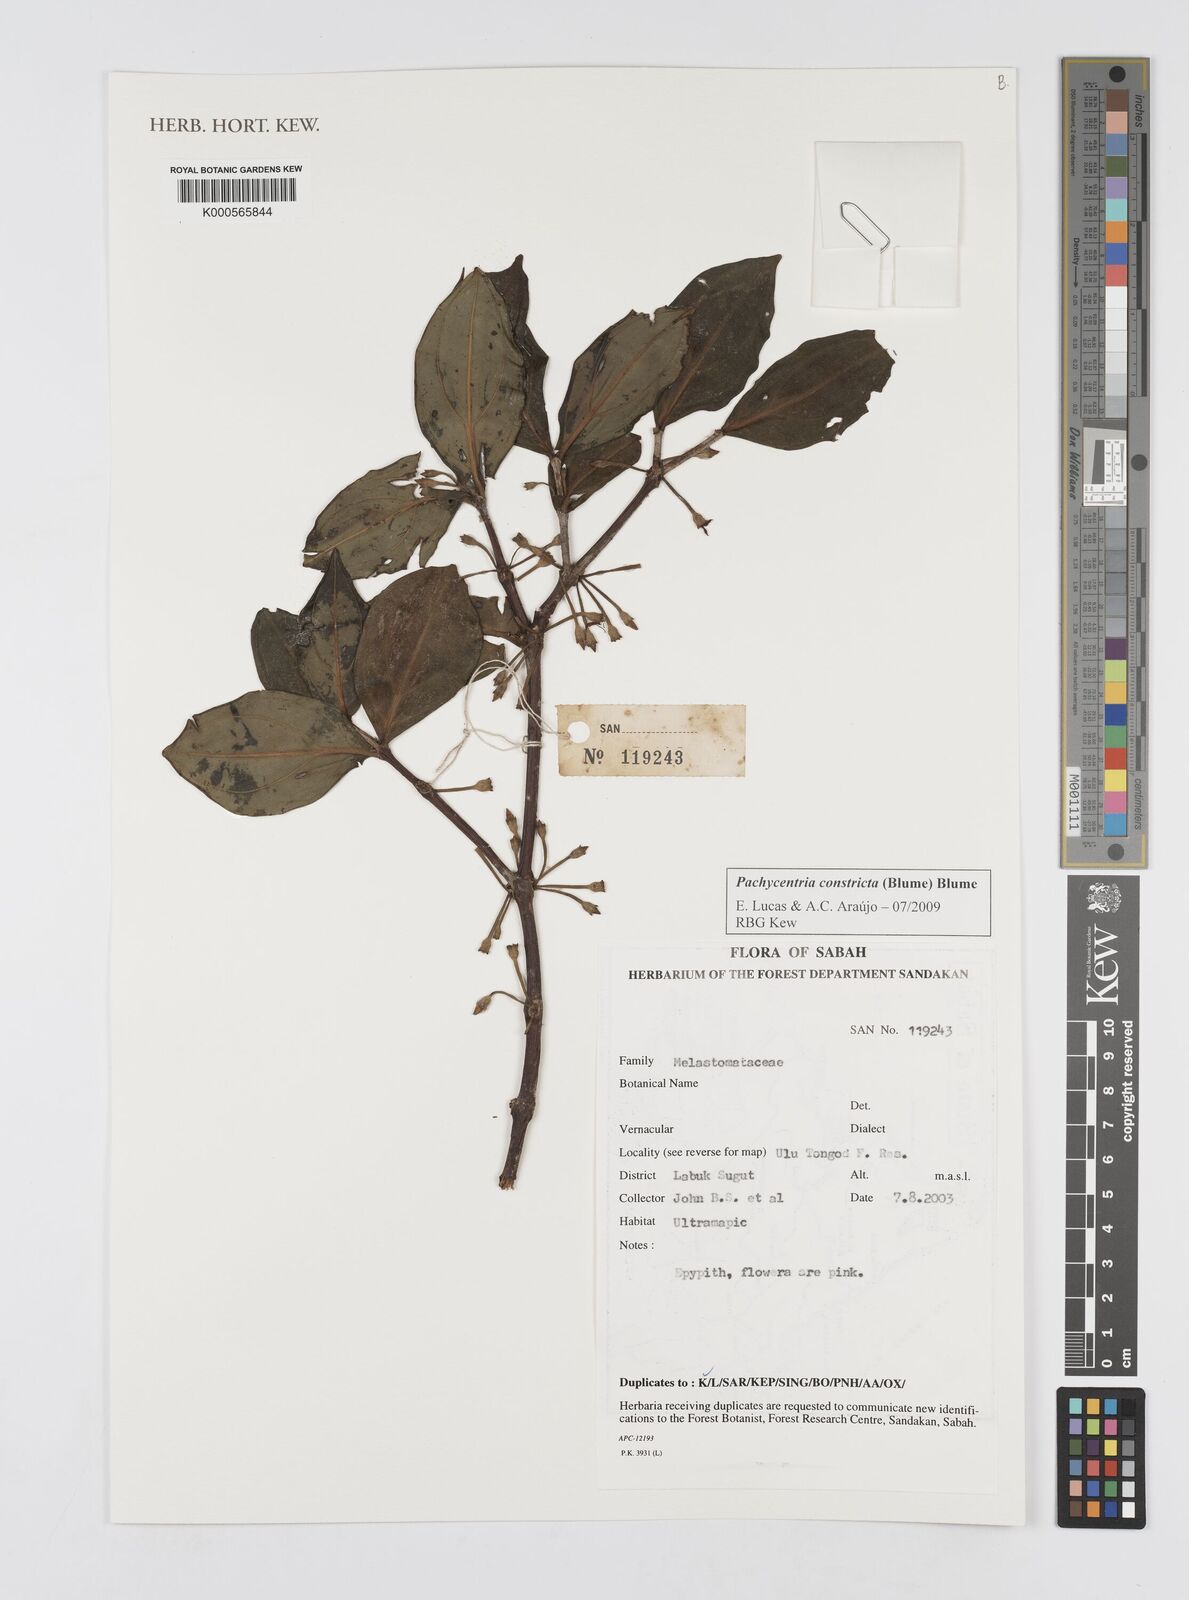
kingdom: Plantae
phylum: Tracheophyta
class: Magnoliopsida
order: Myrtales
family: Melastomataceae
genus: Pachycentria
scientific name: Pachycentria constricta
